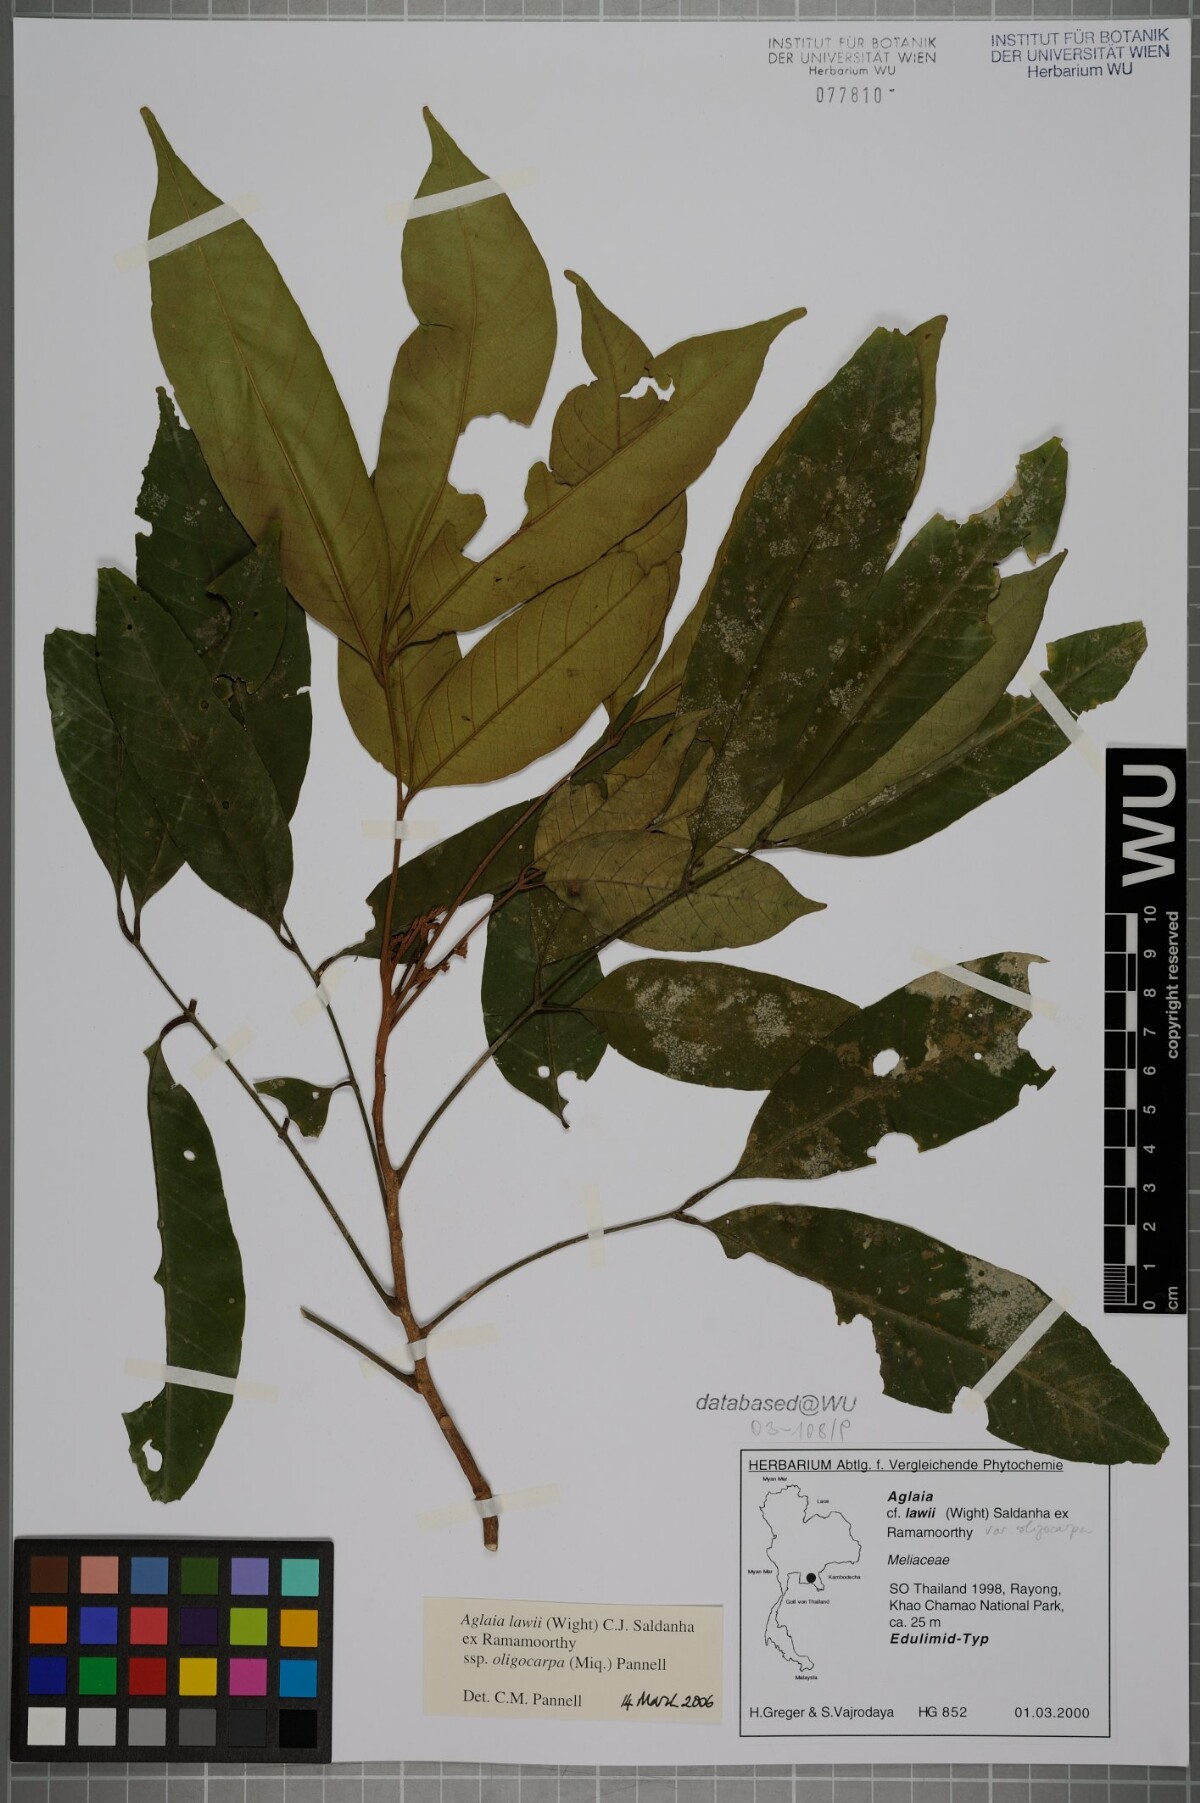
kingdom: Plantae
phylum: Tracheophyta
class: Magnoliopsida
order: Sapindales
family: Meliaceae
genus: Aglaia
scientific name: Aglaia lawii
